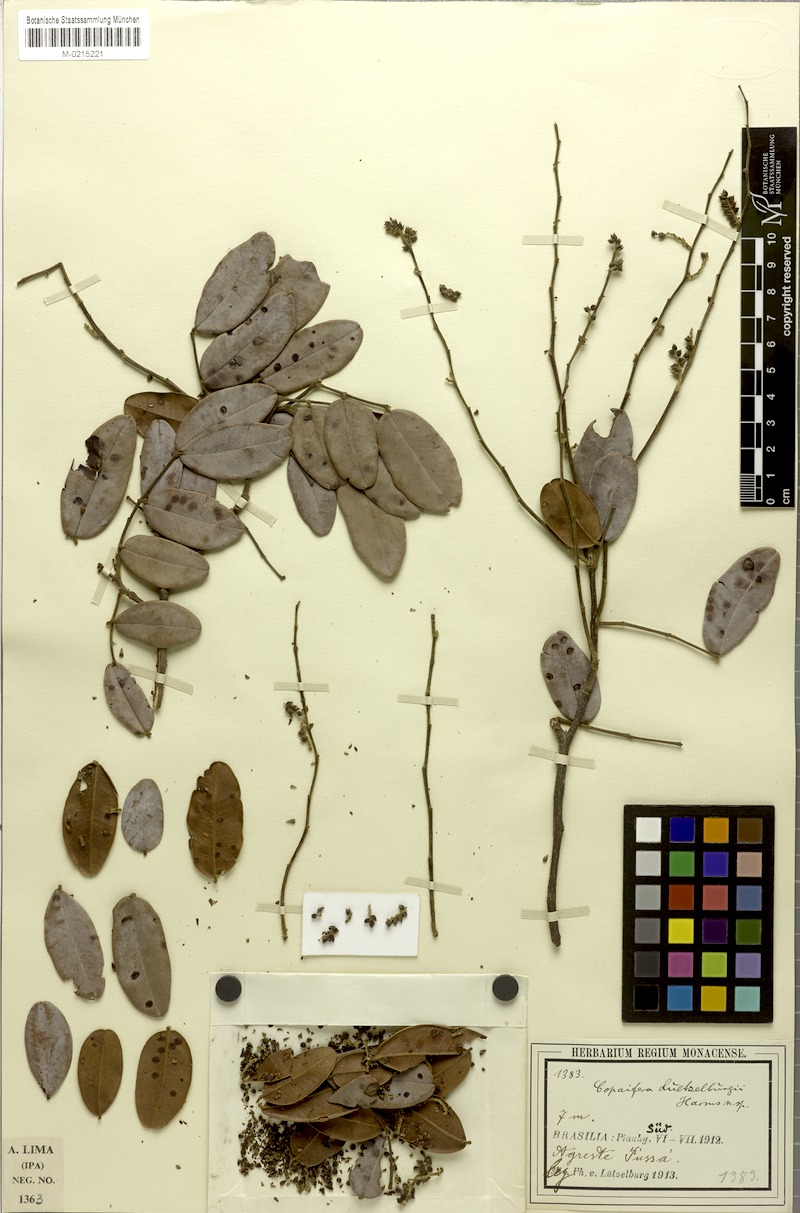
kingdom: Plantae
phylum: Tracheophyta
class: Magnoliopsida
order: Fabales
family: Fabaceae
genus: Copaifera
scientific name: Copaifera luetzelburgii
